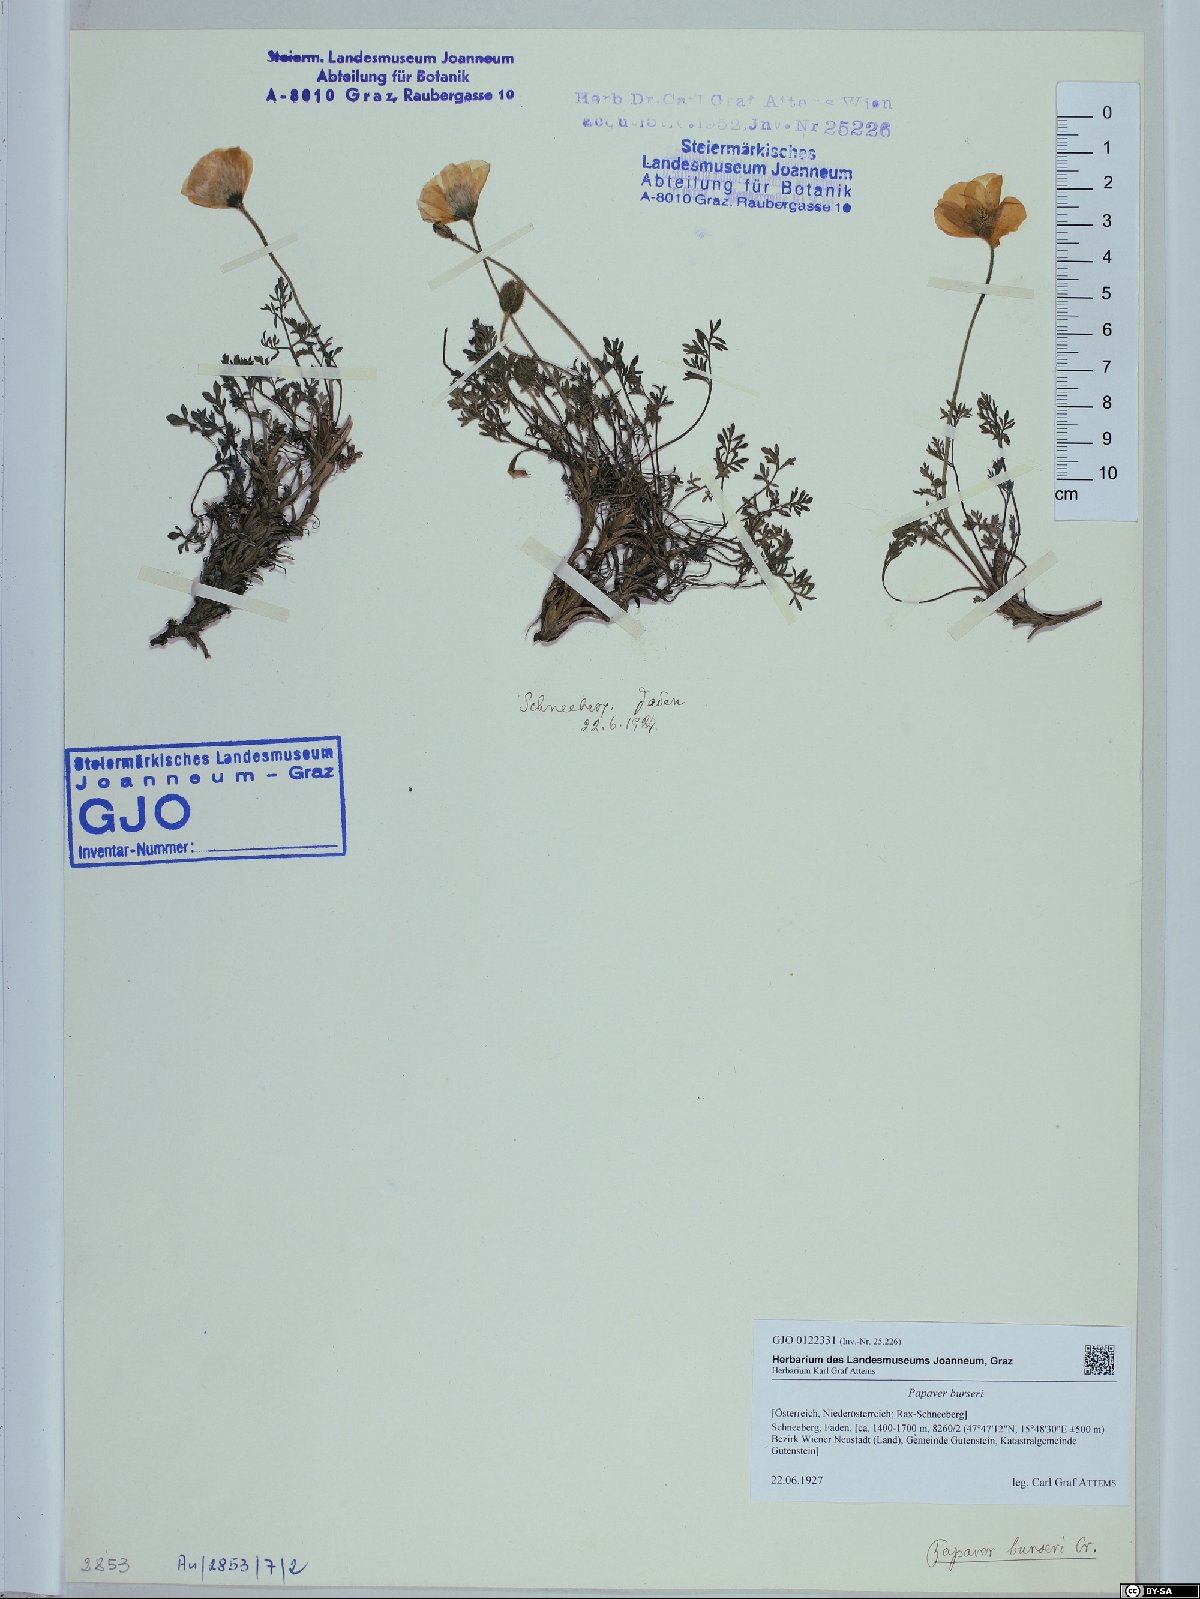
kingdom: Plantae
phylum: Tracheophyta
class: Magnoliopsida
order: Ranunculales
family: Papaveraceae
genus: Papaver
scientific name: Papaver alpinum
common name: Austrian poppy
